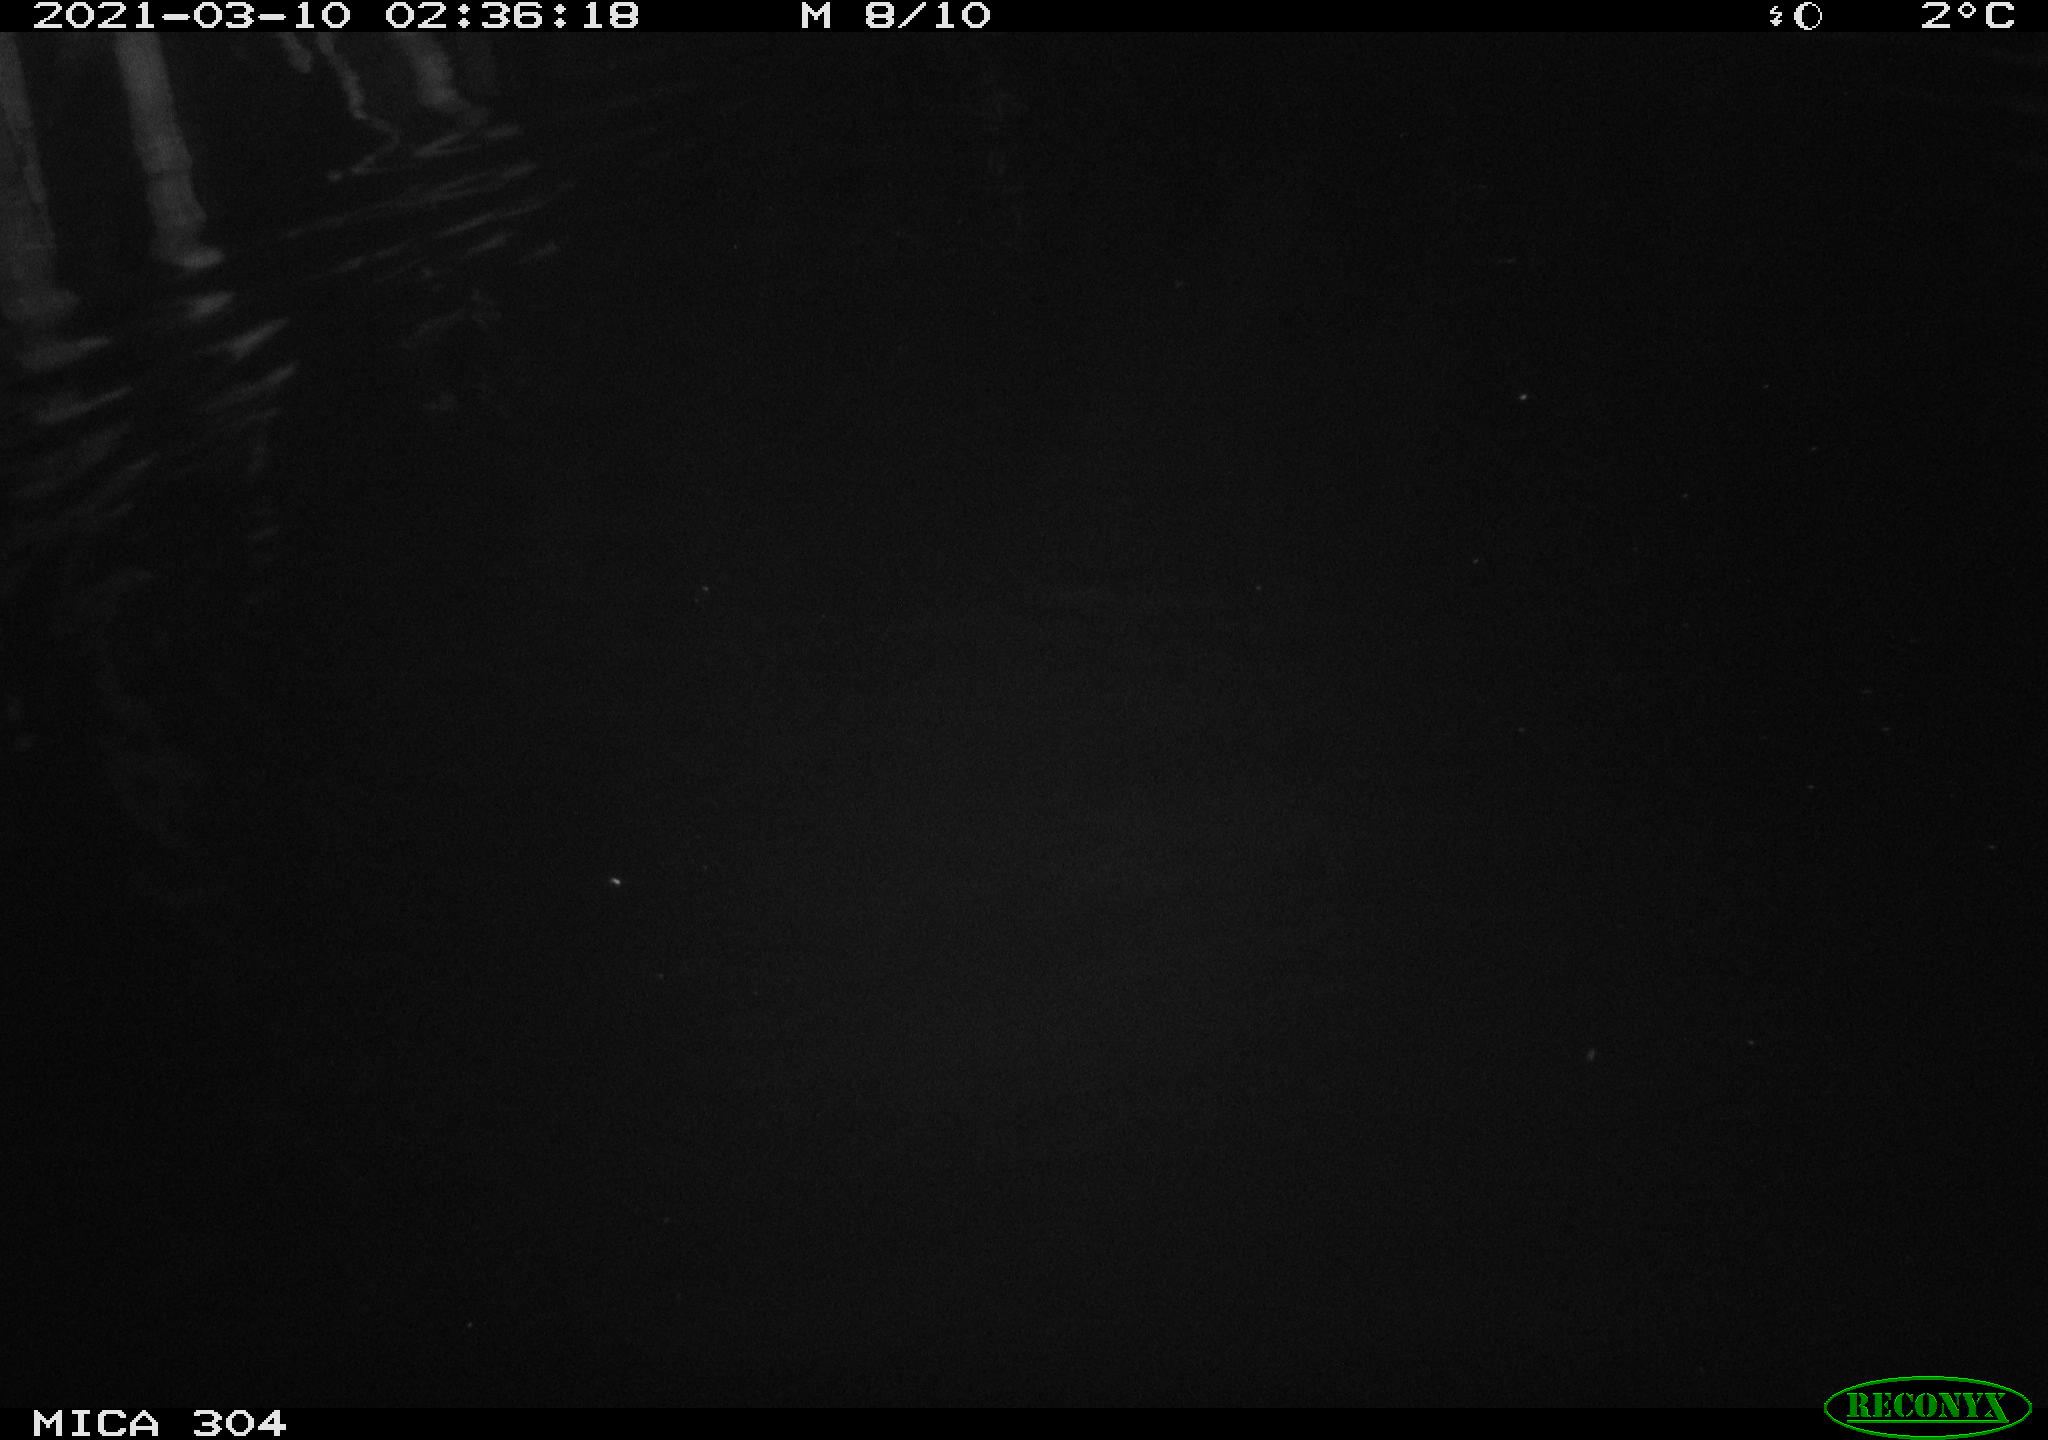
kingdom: Animalia
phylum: Chordata
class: Mammalia
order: Rodentia
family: Cricetidae
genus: Ondatra
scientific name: Ondatra zibethicus
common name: Muskrat
